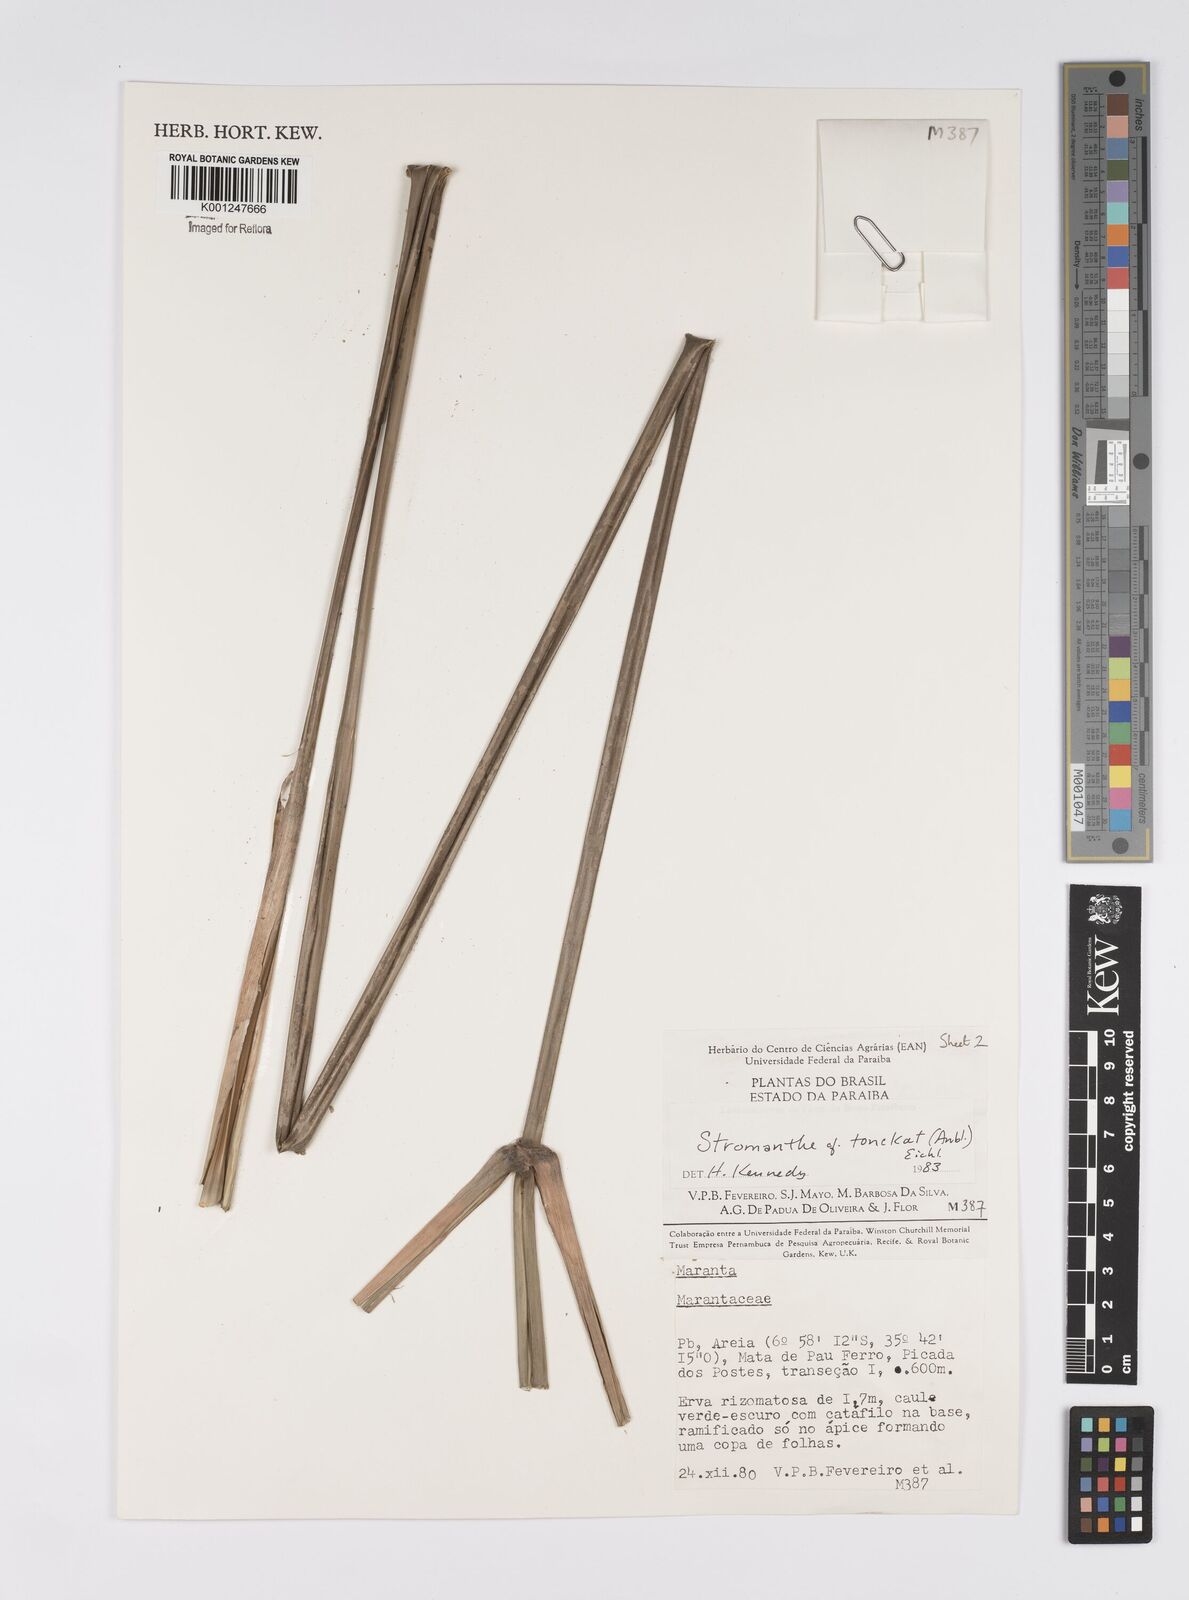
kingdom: Plantae
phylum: Tracheophyta
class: Liliopsida
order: Zingiberales
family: Marantaceae
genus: Stromanthe
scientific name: Stromanthe tonckat
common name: Stromanthe
